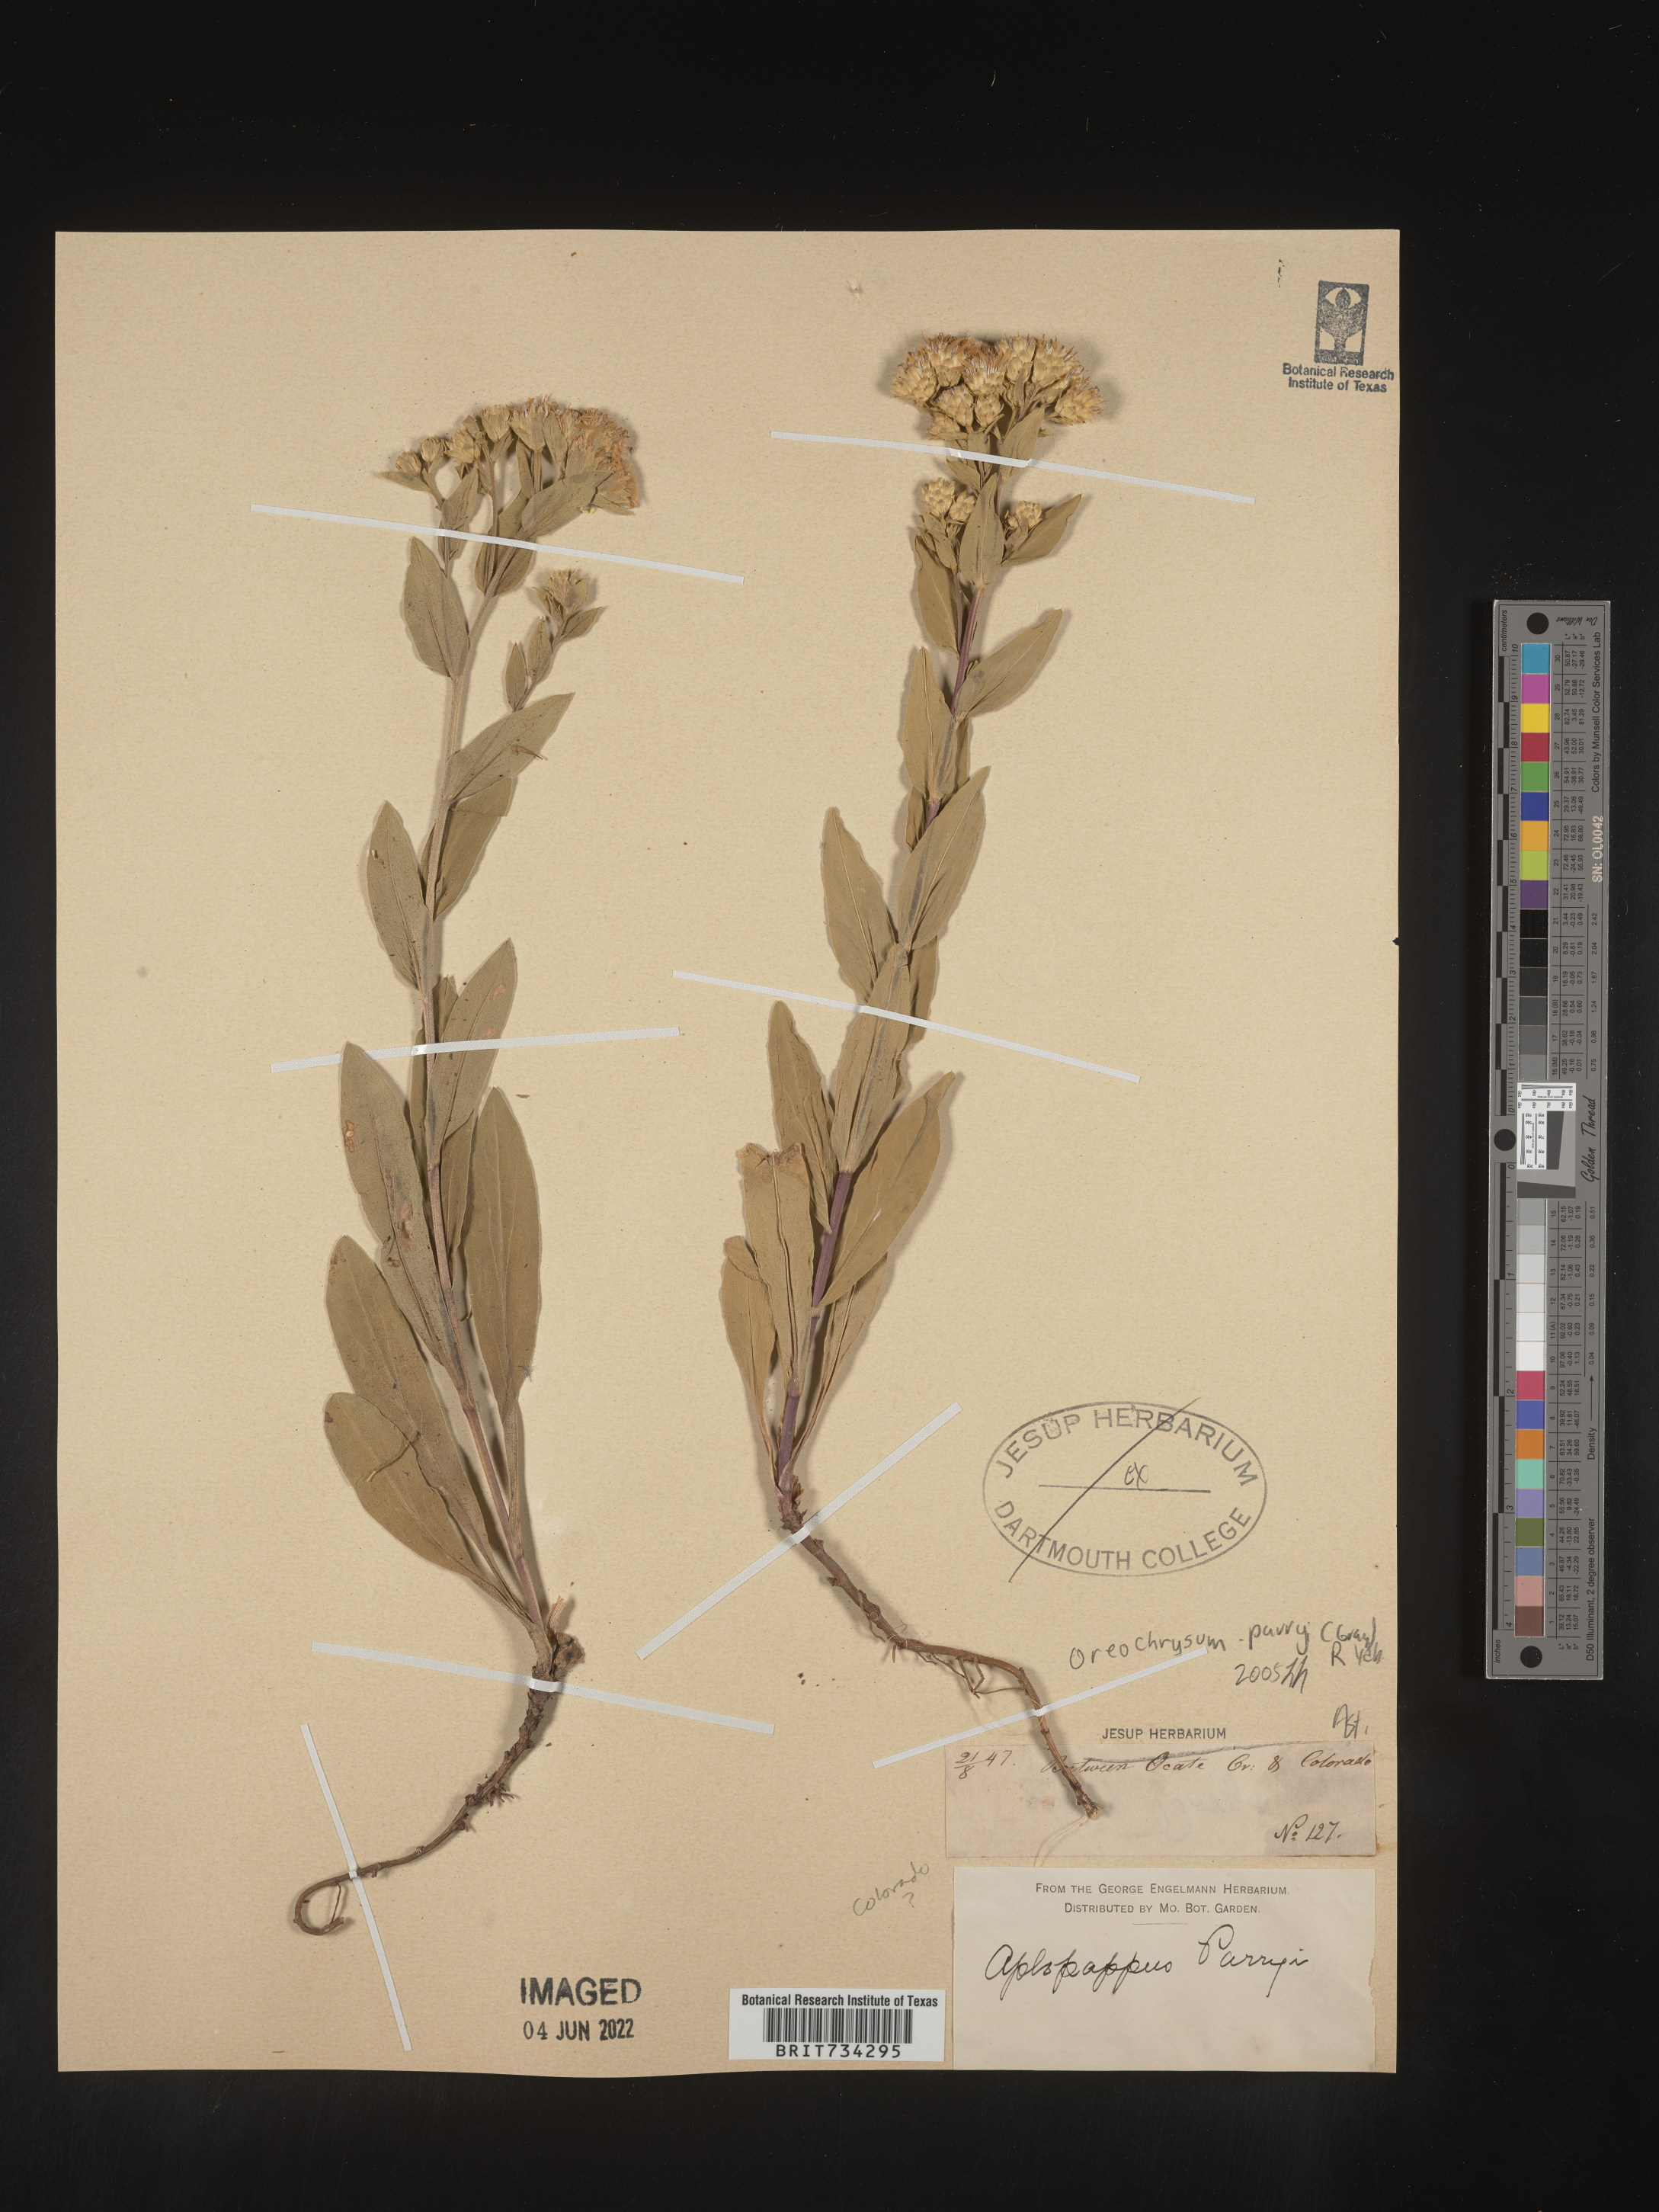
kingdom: Plantae
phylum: Tracheophyta
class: Magnoliopsida
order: Asterales
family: Asteraceae
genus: Oreochrysum
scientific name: Oreochrysum parryi
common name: Parry's goldenweed
